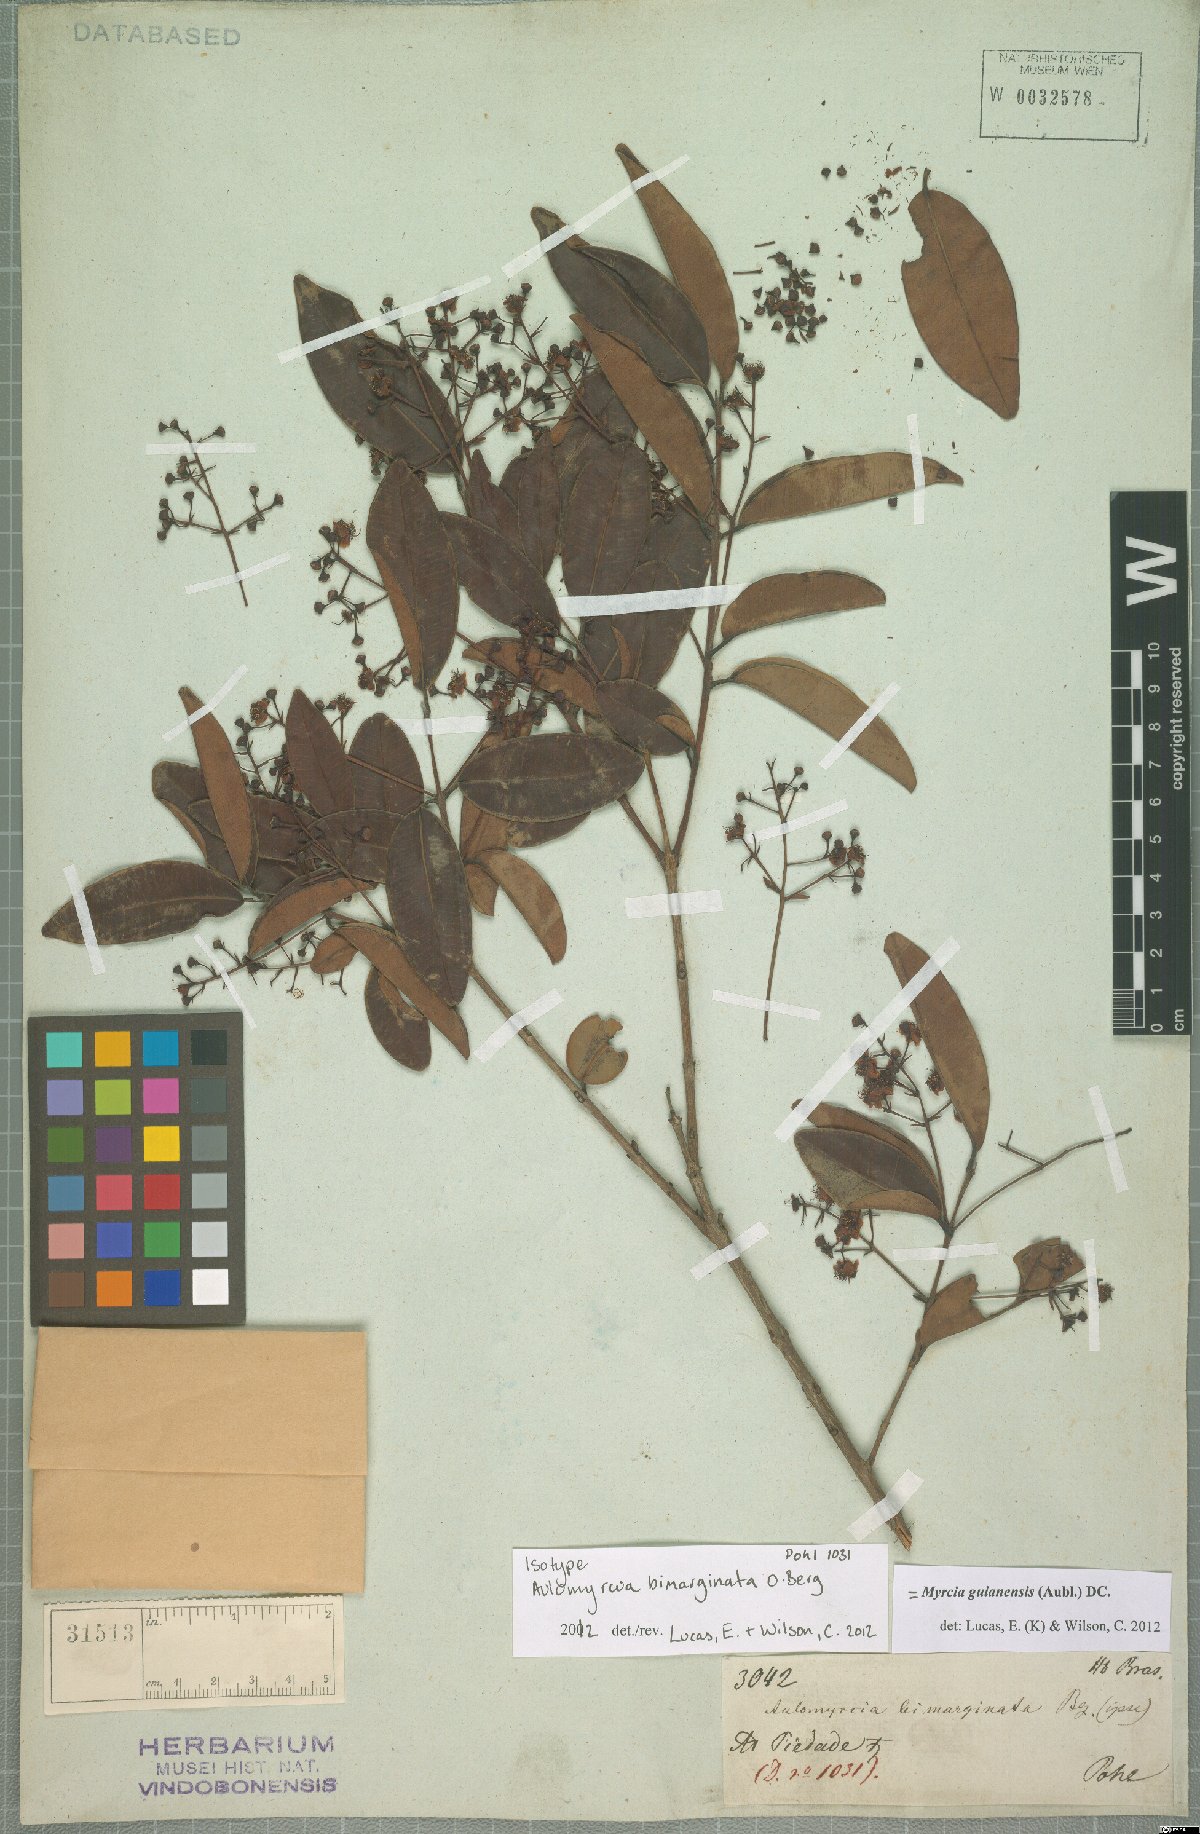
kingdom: Plantae
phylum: Tracheophyta
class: Magnoliopsida
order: Myrtales
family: Myrtaceae
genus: Myrcia
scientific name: Myrcia guianensis
